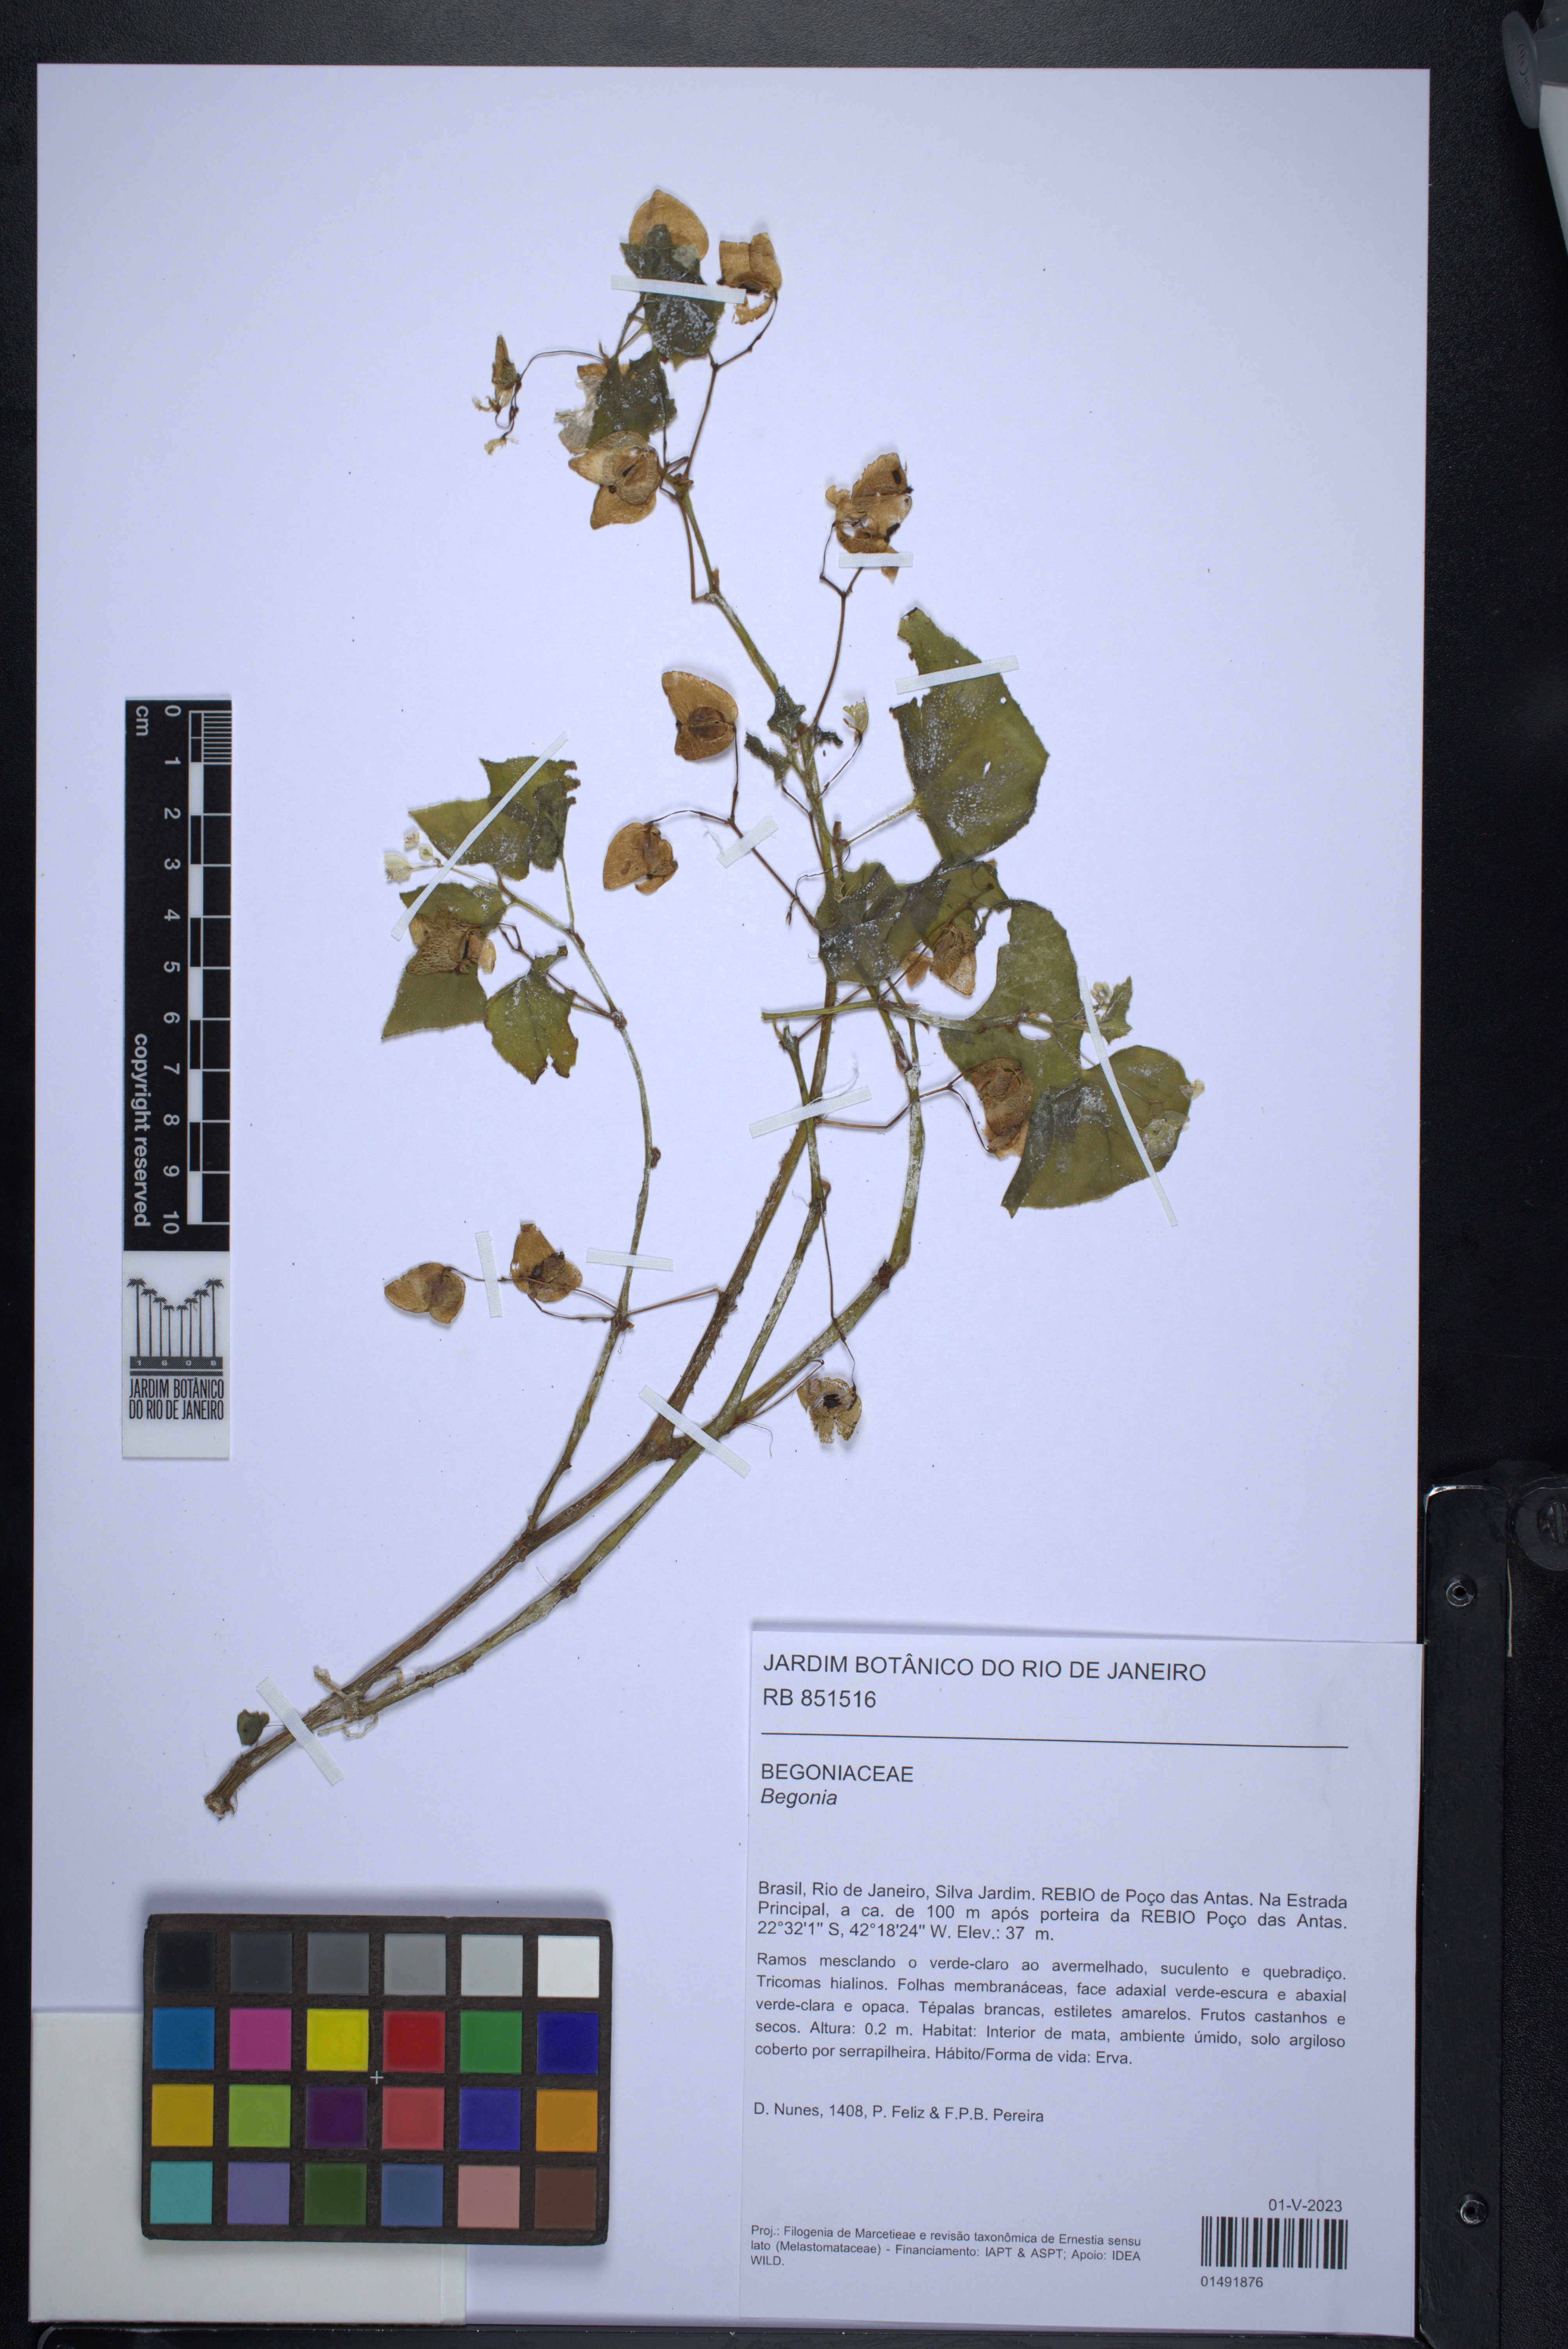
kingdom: Plantae
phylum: Tracheophyta
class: Magnoliopsida
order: Cucurbitales
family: Begoniaceae
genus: Begonia
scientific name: Begonia hirtella
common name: Brazilian begonia
